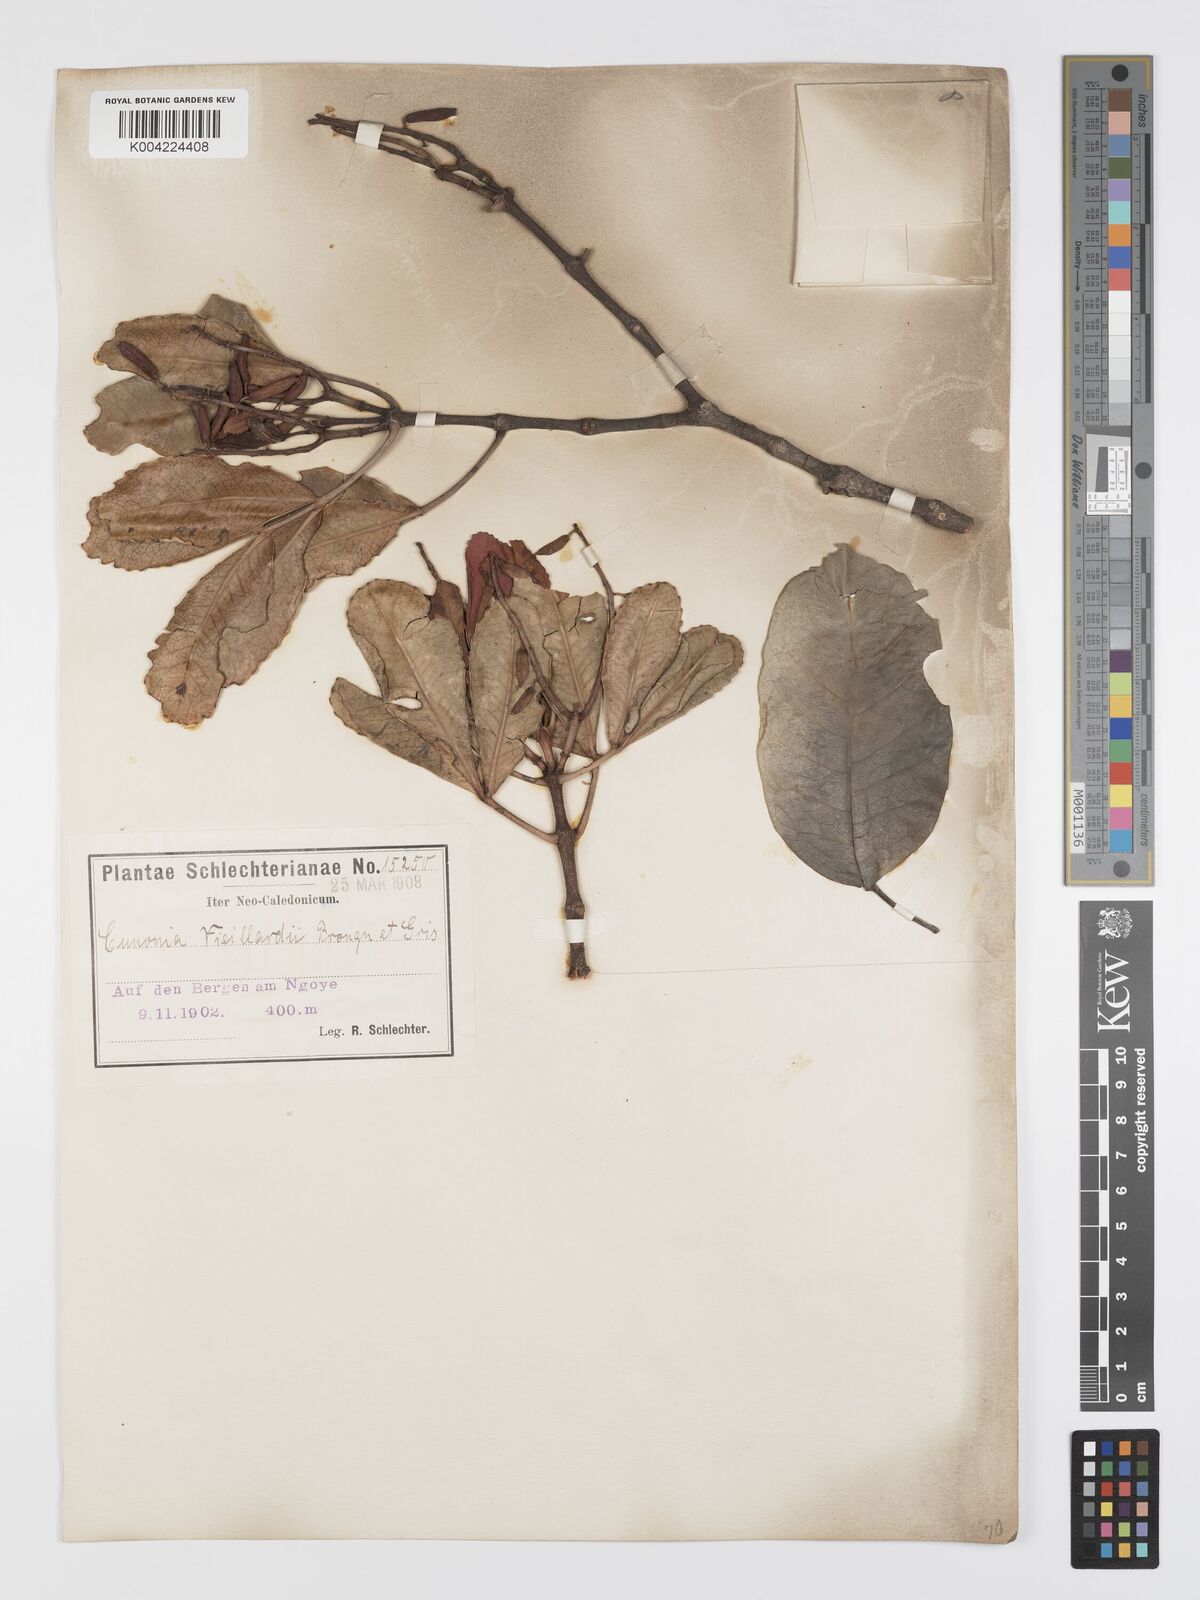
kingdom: Plantae
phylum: Tracheophyta
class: Magnoliopsida
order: Oxalidales
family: Cunoniaceae
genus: Cunonia
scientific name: Cunonia vieillardii
